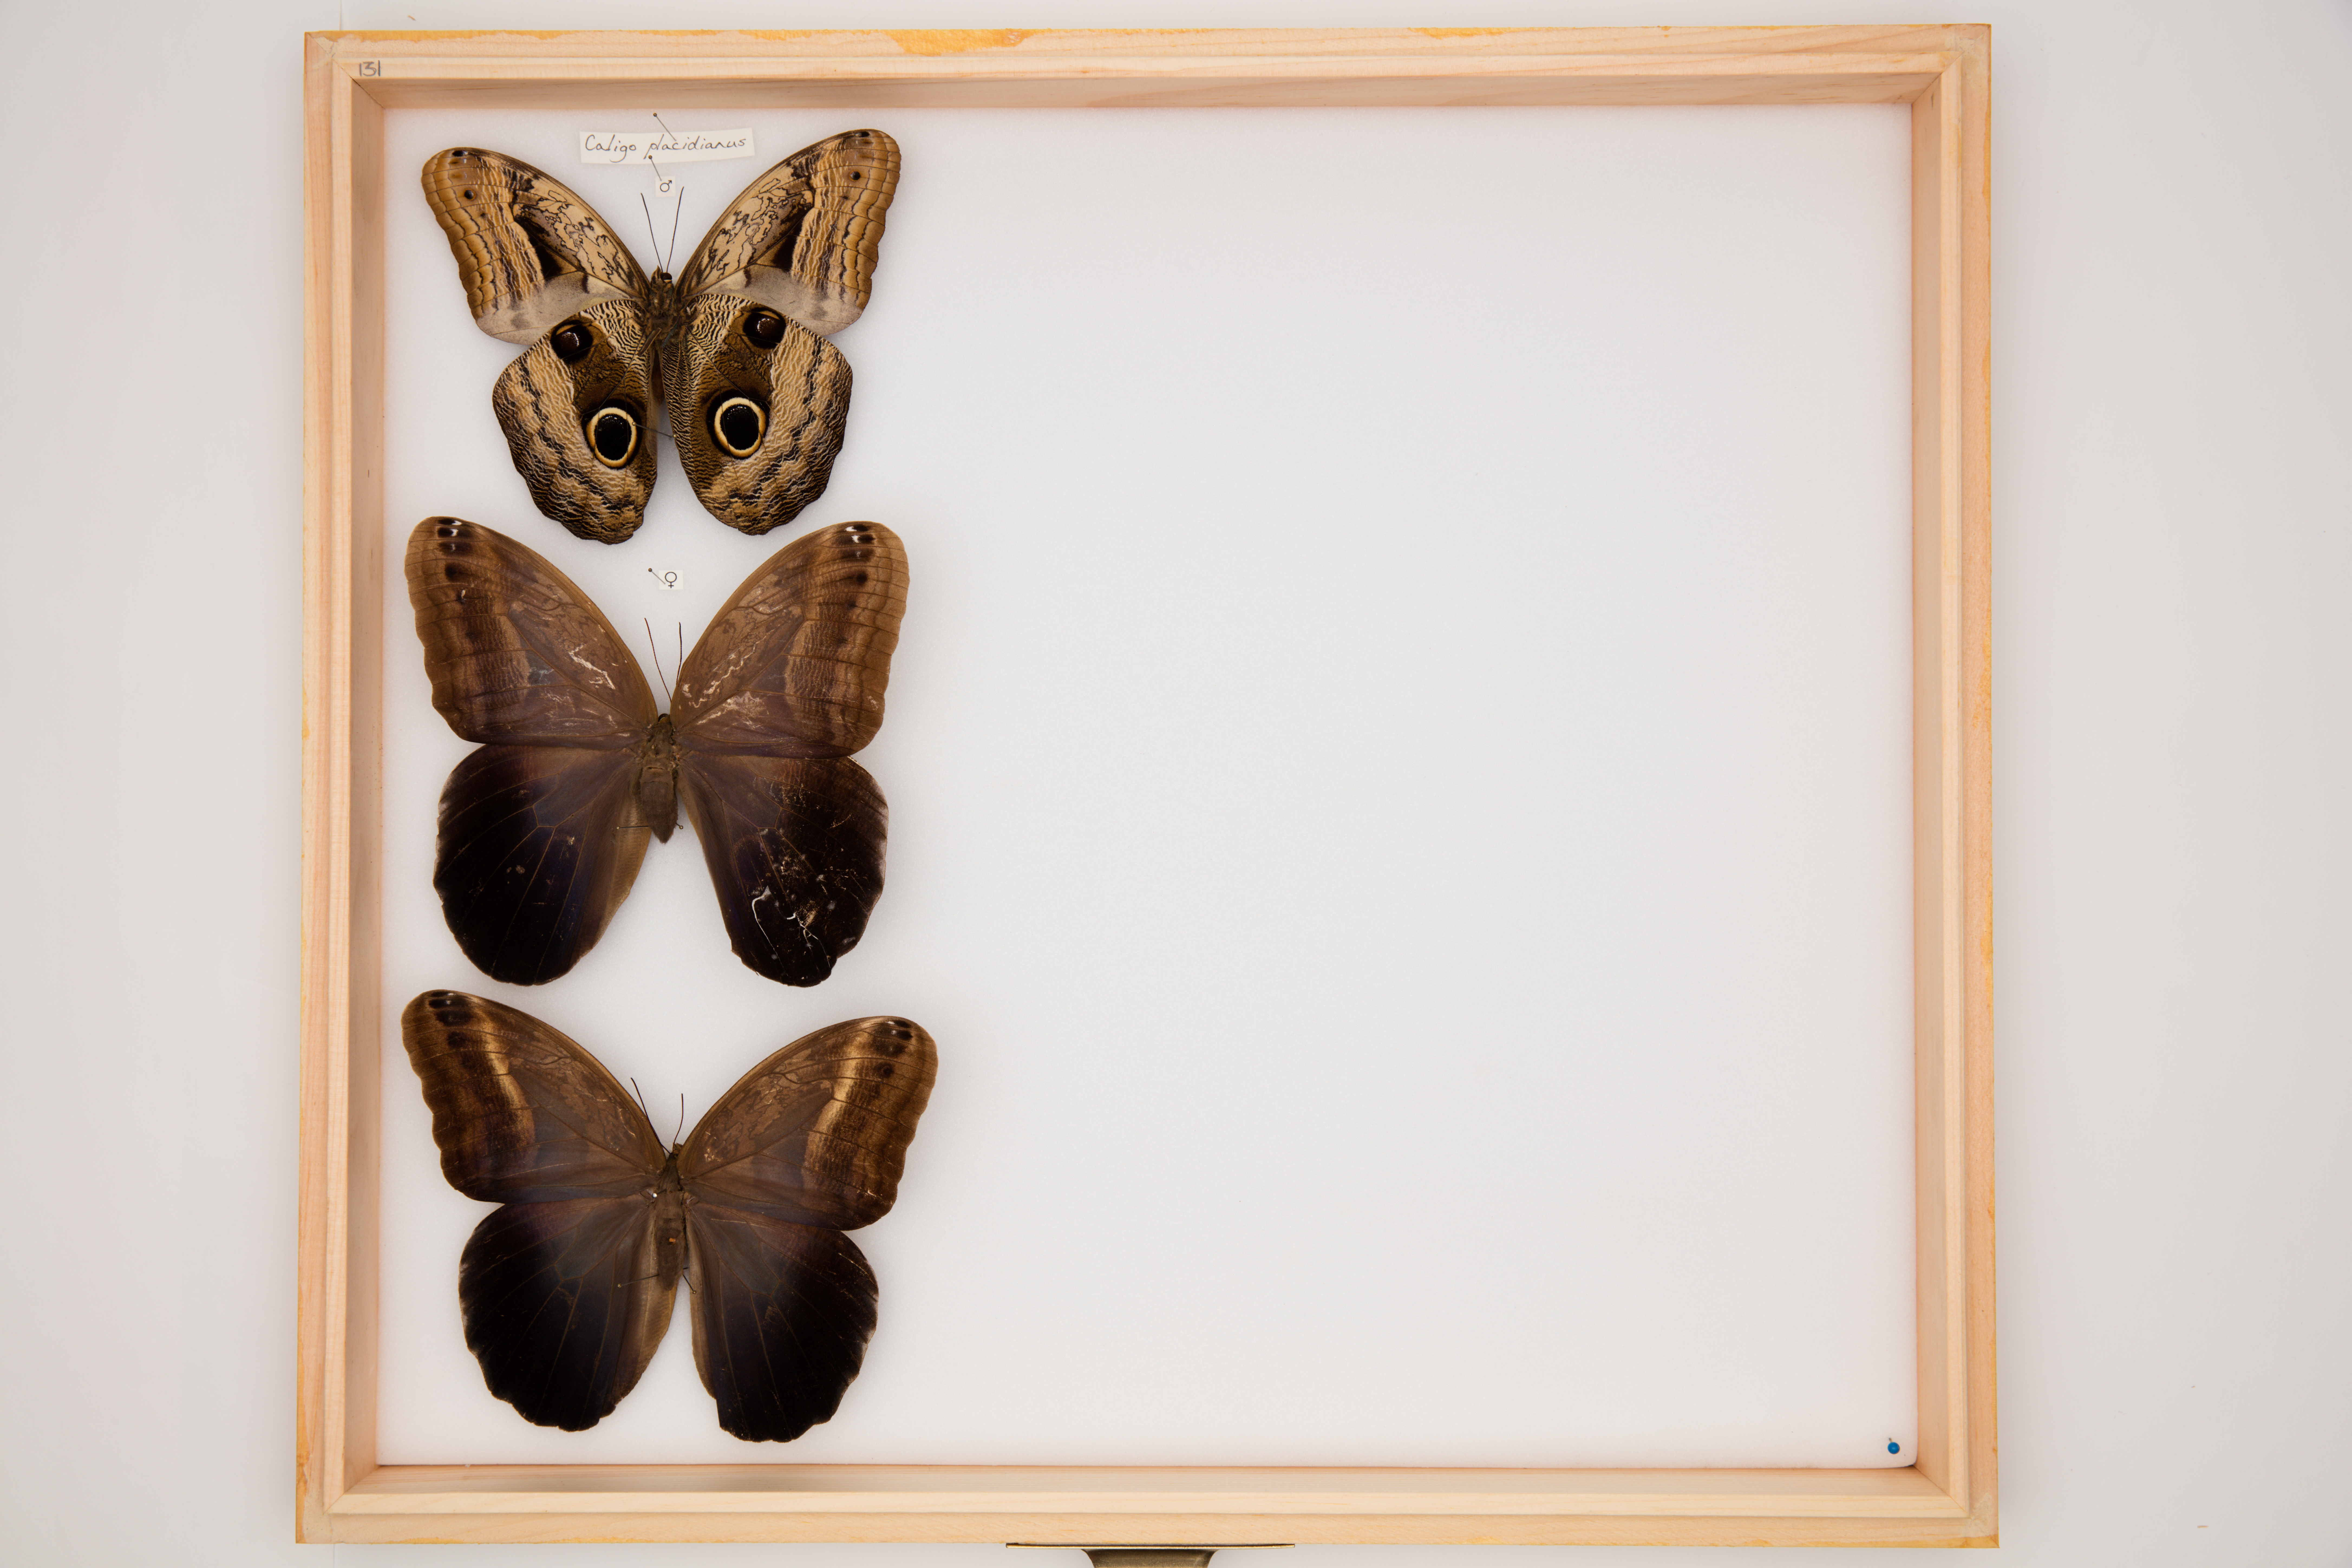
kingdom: Animalia
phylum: Arthropoda
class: Insecta
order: Lepidoptera
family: Nymphalidae
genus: Caligo
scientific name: Caligo placidianus
